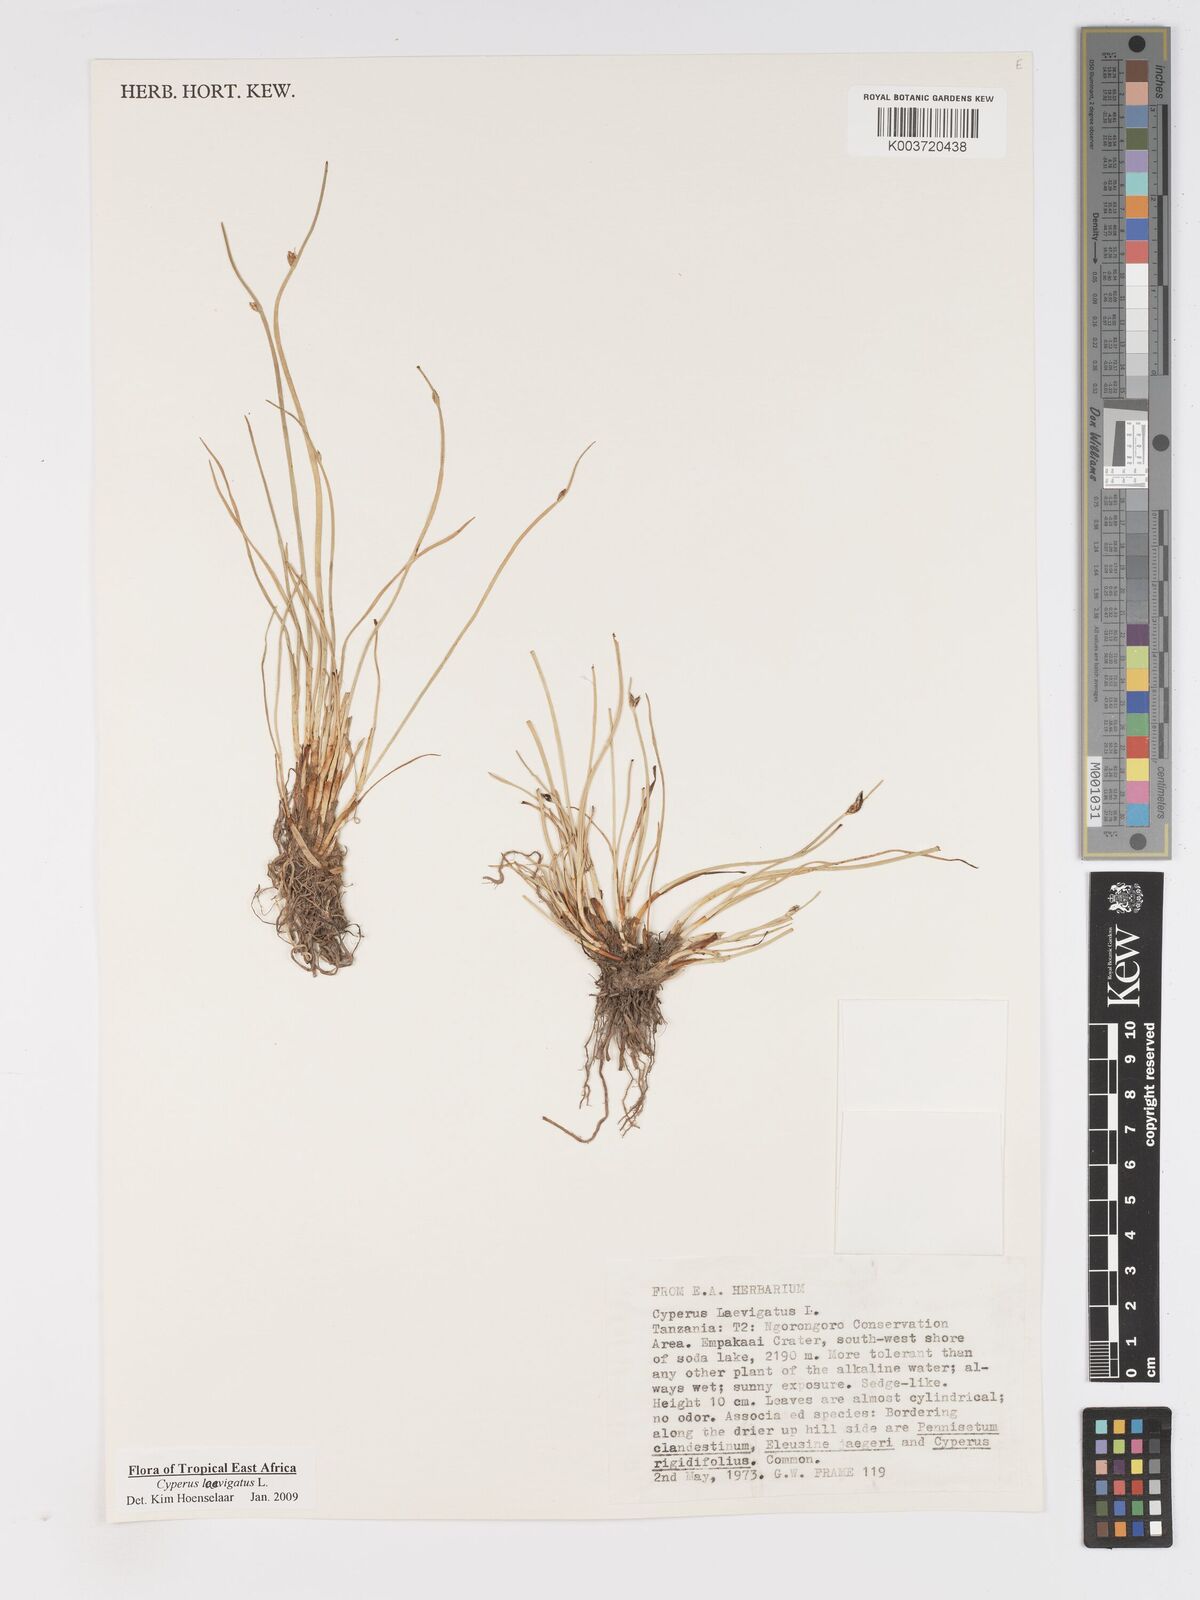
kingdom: Plantae
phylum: Tracheophyta
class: Liliopsida
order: Poales
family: Cyperaceae
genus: Cyperus
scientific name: Cyperus laevigatus
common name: Smooth flat sedge
